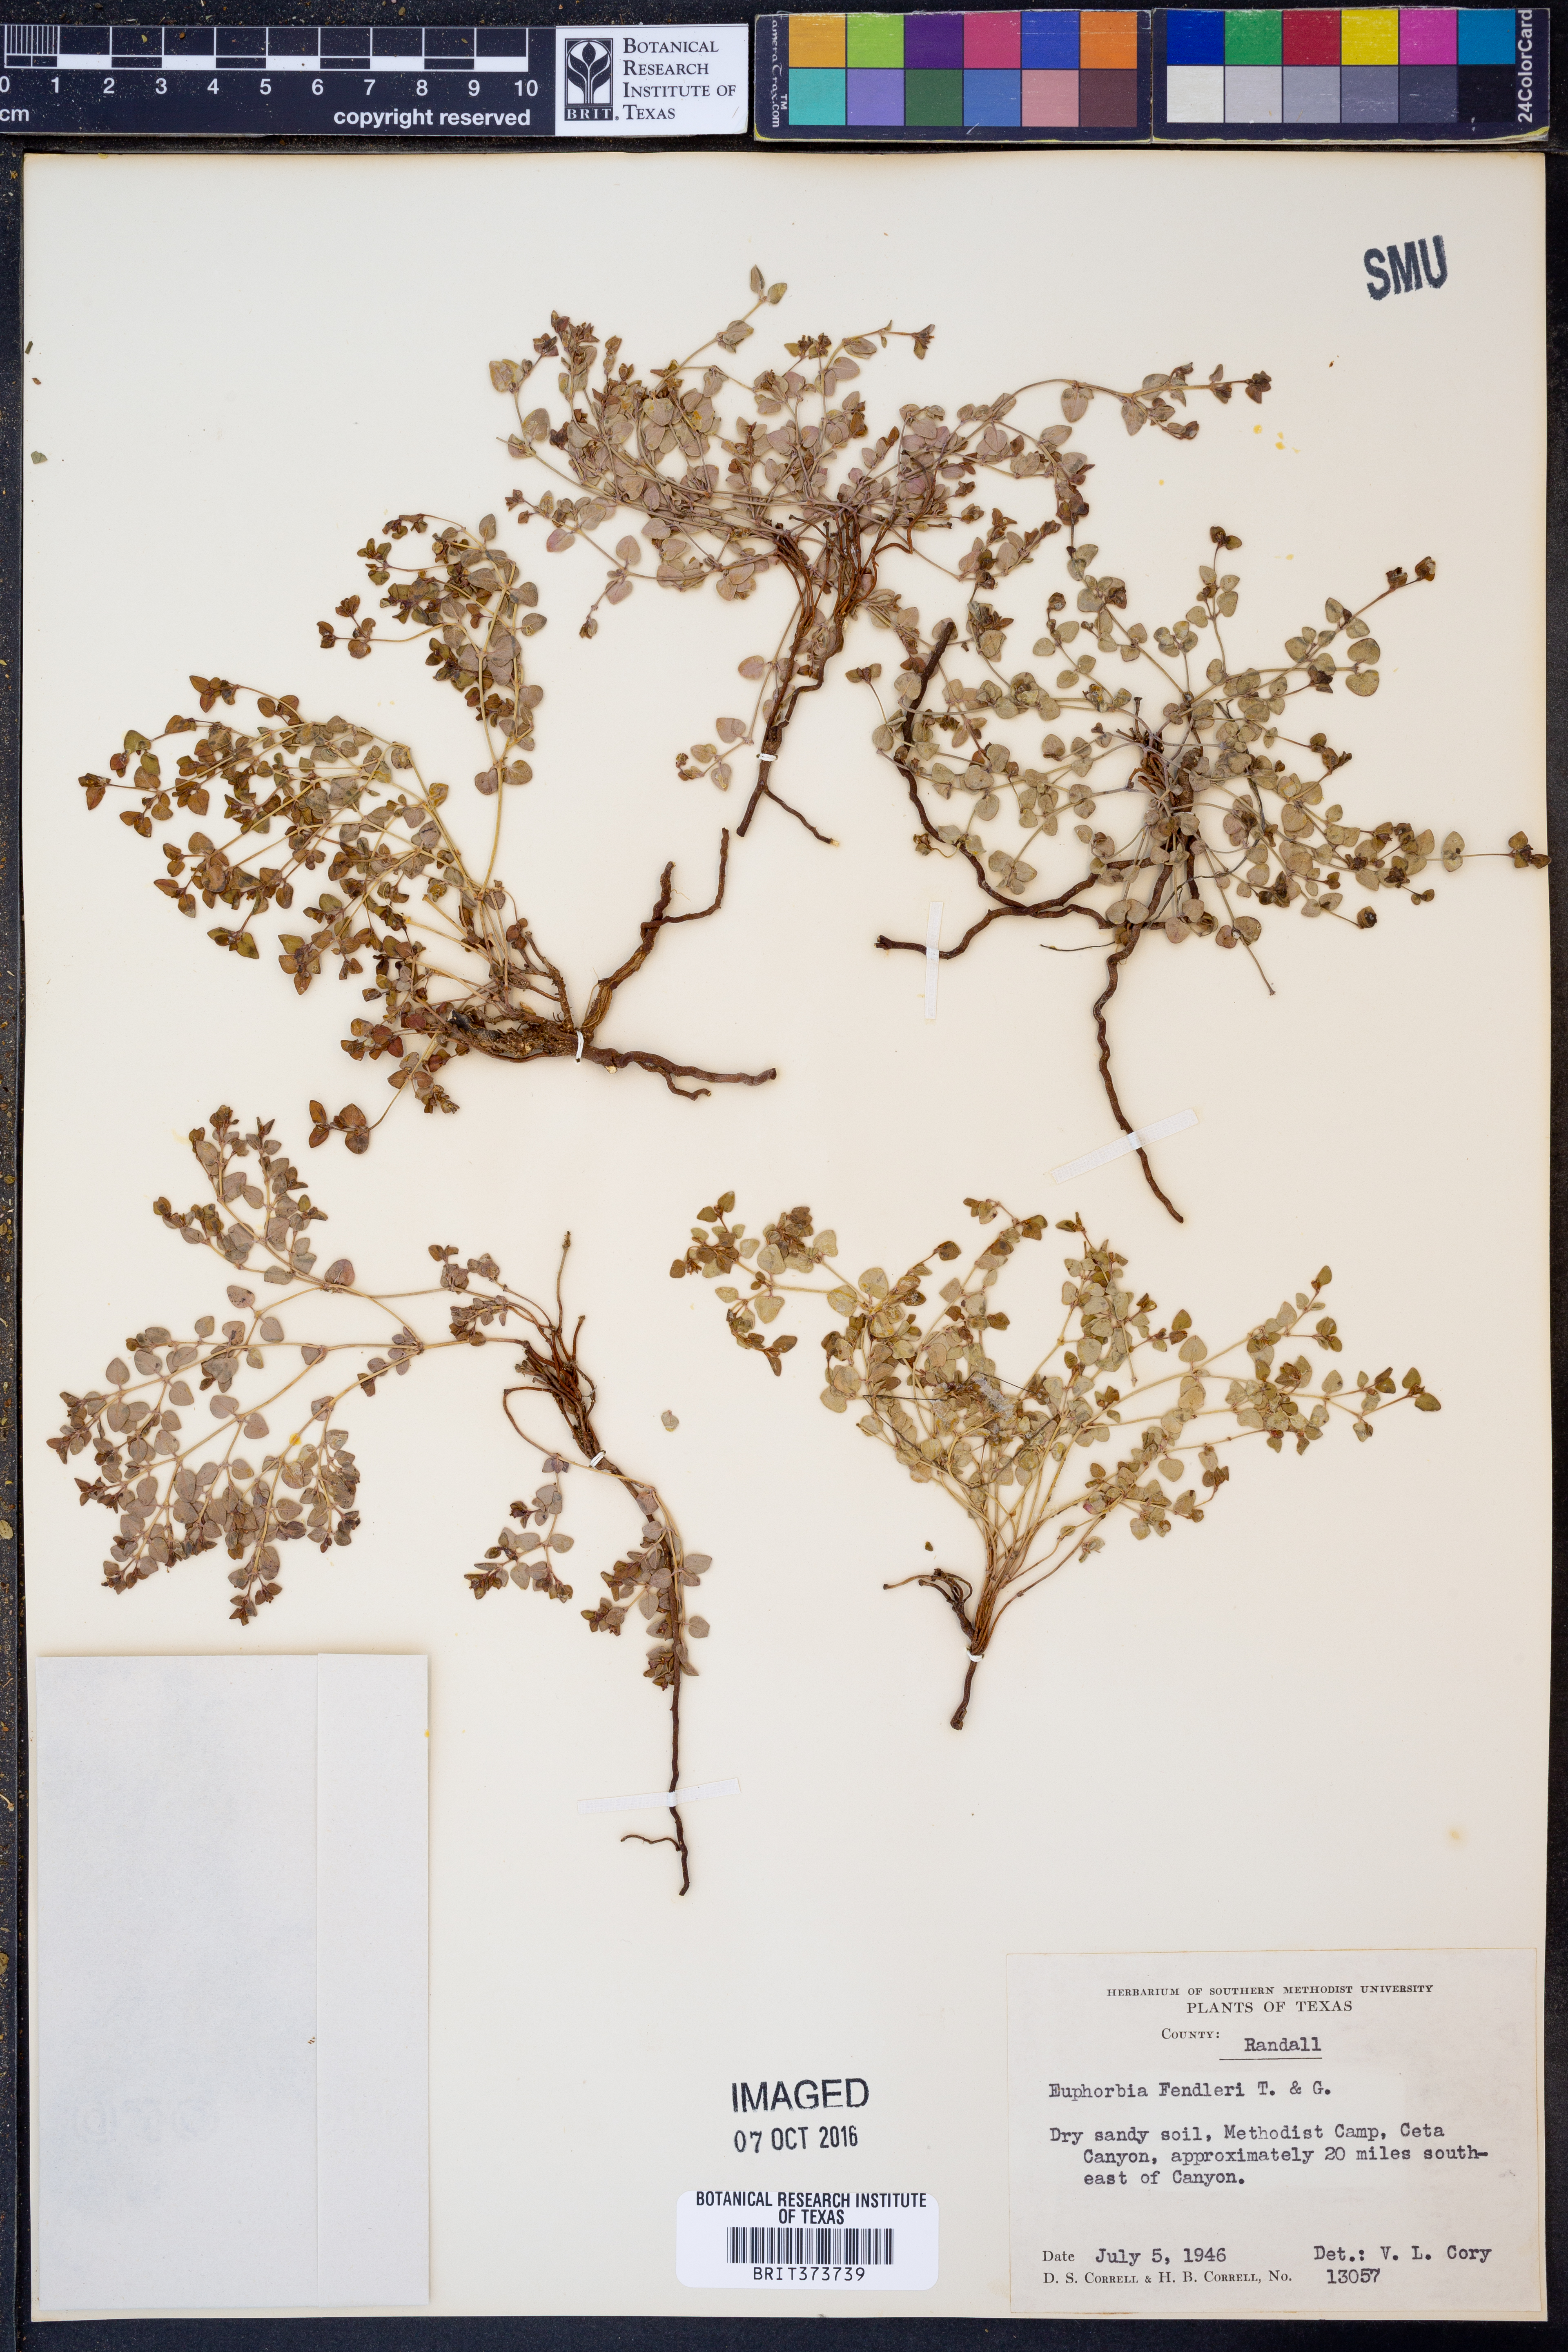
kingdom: Plantae
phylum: Tracheophyta
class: Magnoliopsida
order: Malpighiales
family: Euphorbiaceae
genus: Euphorbia
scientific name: Euphorbia fendleri
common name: Fendler's euphorbia
